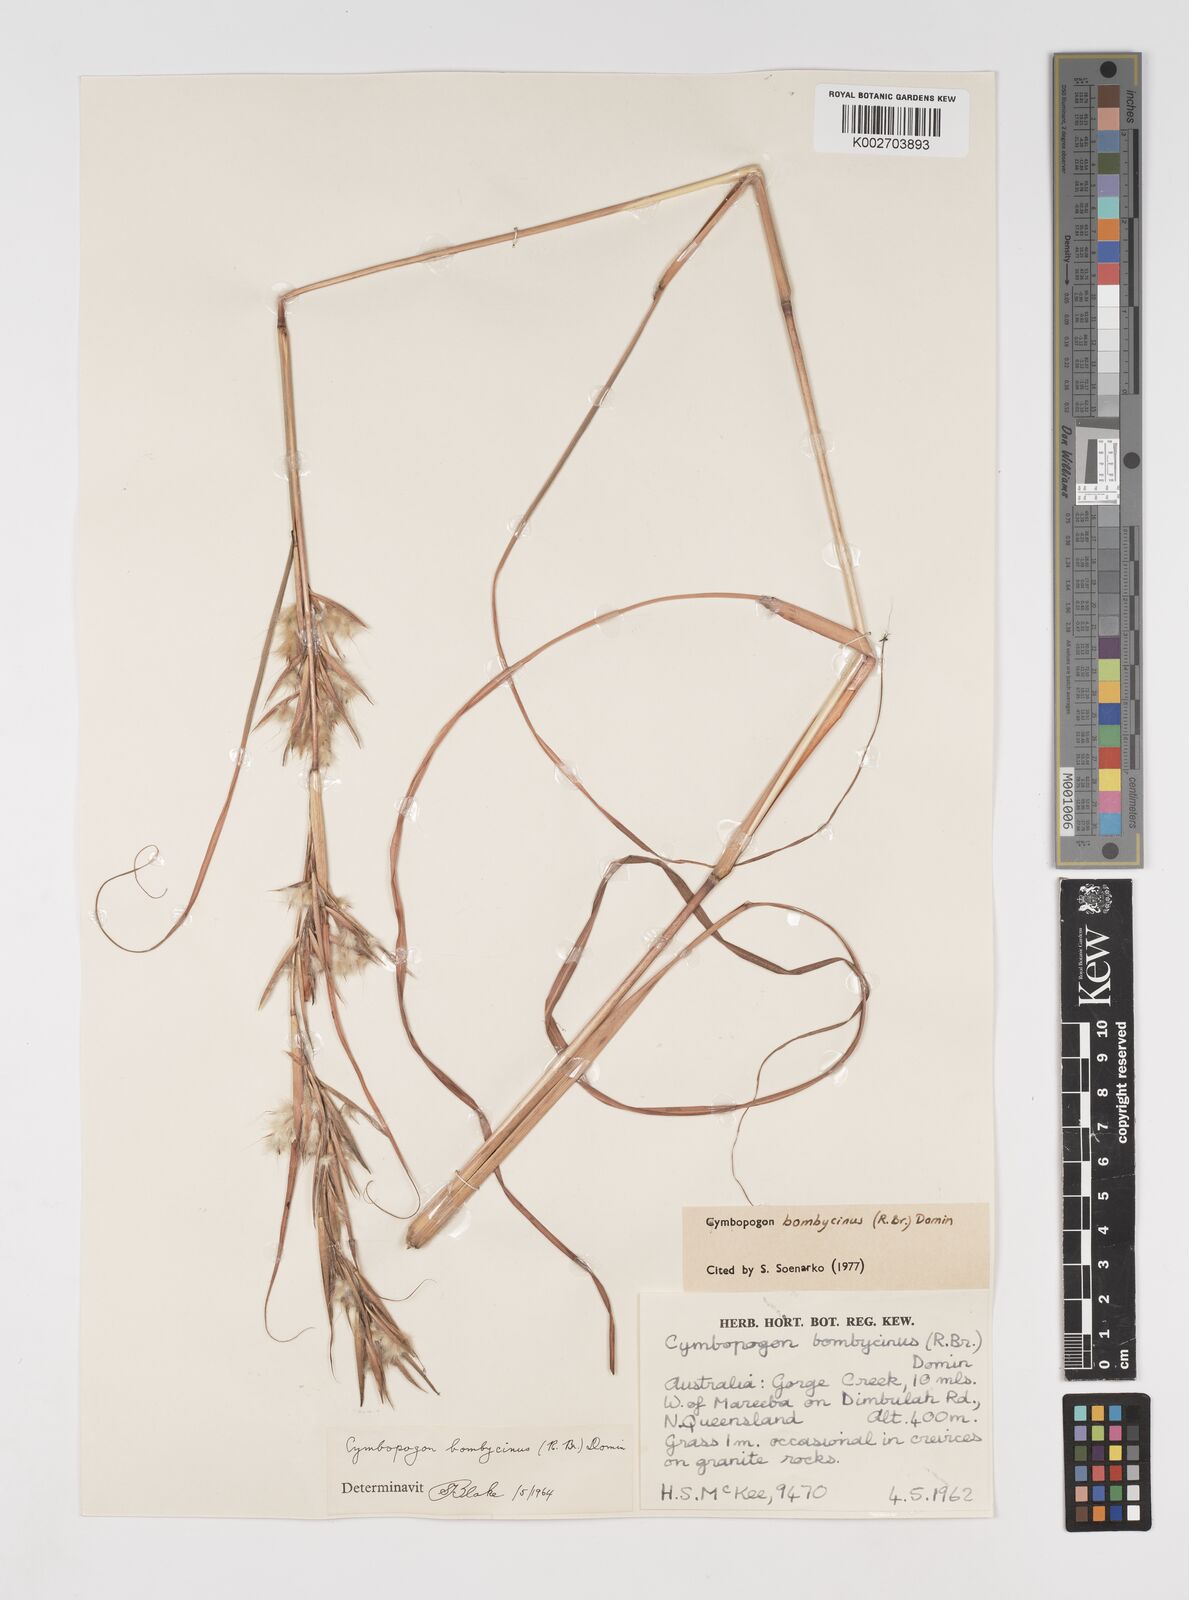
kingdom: Plantae
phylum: Tracheophyta
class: Liliopsida
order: Poales
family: Poaceae
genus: Cymbopogon
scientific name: Cymbopogon bombycinus
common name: Citronella grass
